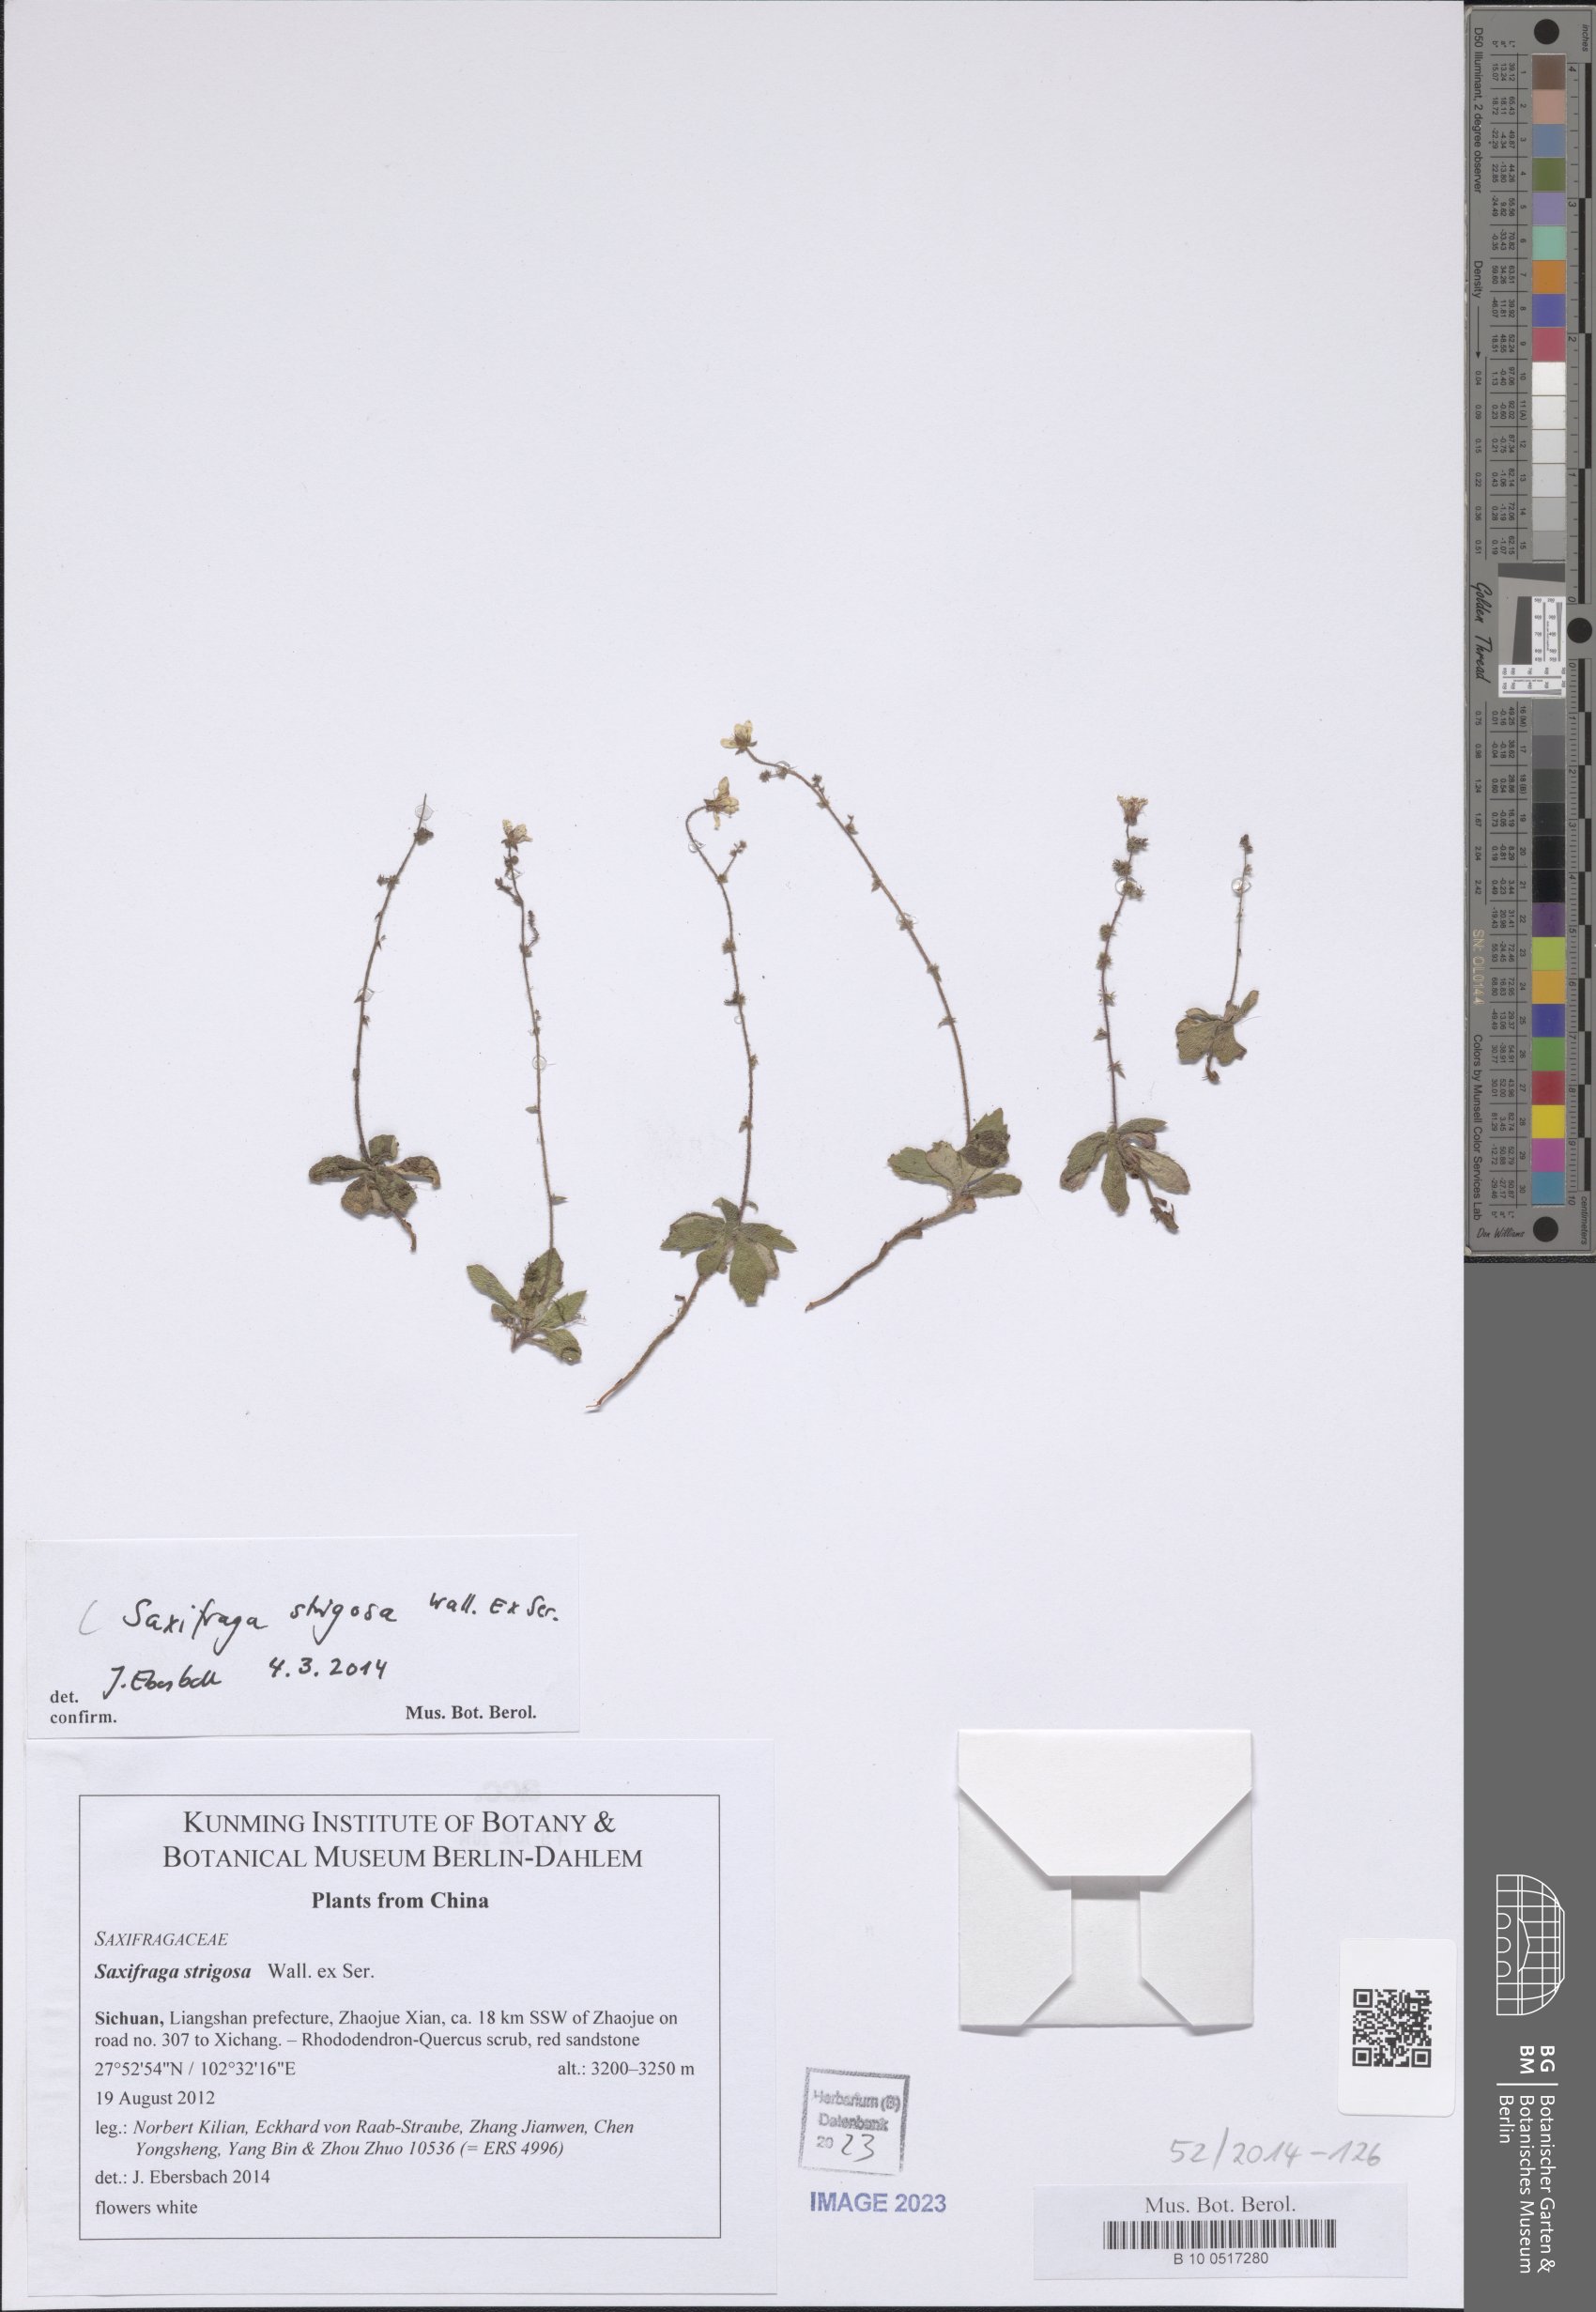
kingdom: Plantae
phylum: Tracheophyta
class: Magnoliopsida
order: Saxifragales
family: Saxifragaceae
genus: Saxifraga
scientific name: Saxifraga strigosa
